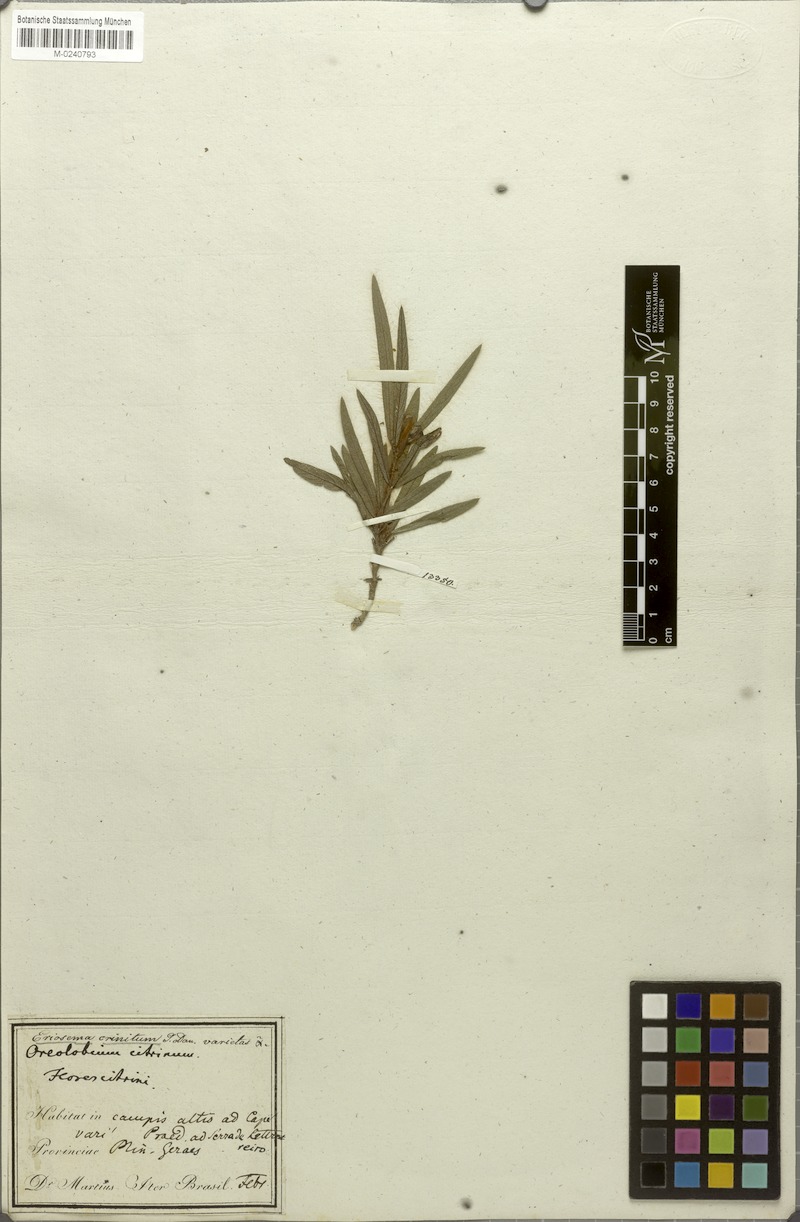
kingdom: Plantae
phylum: Tracheophyta
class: Magnoliopsida
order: Fabales
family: Fabaceae
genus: Eriosema
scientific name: Eriosema crinitum
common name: Sand pea
